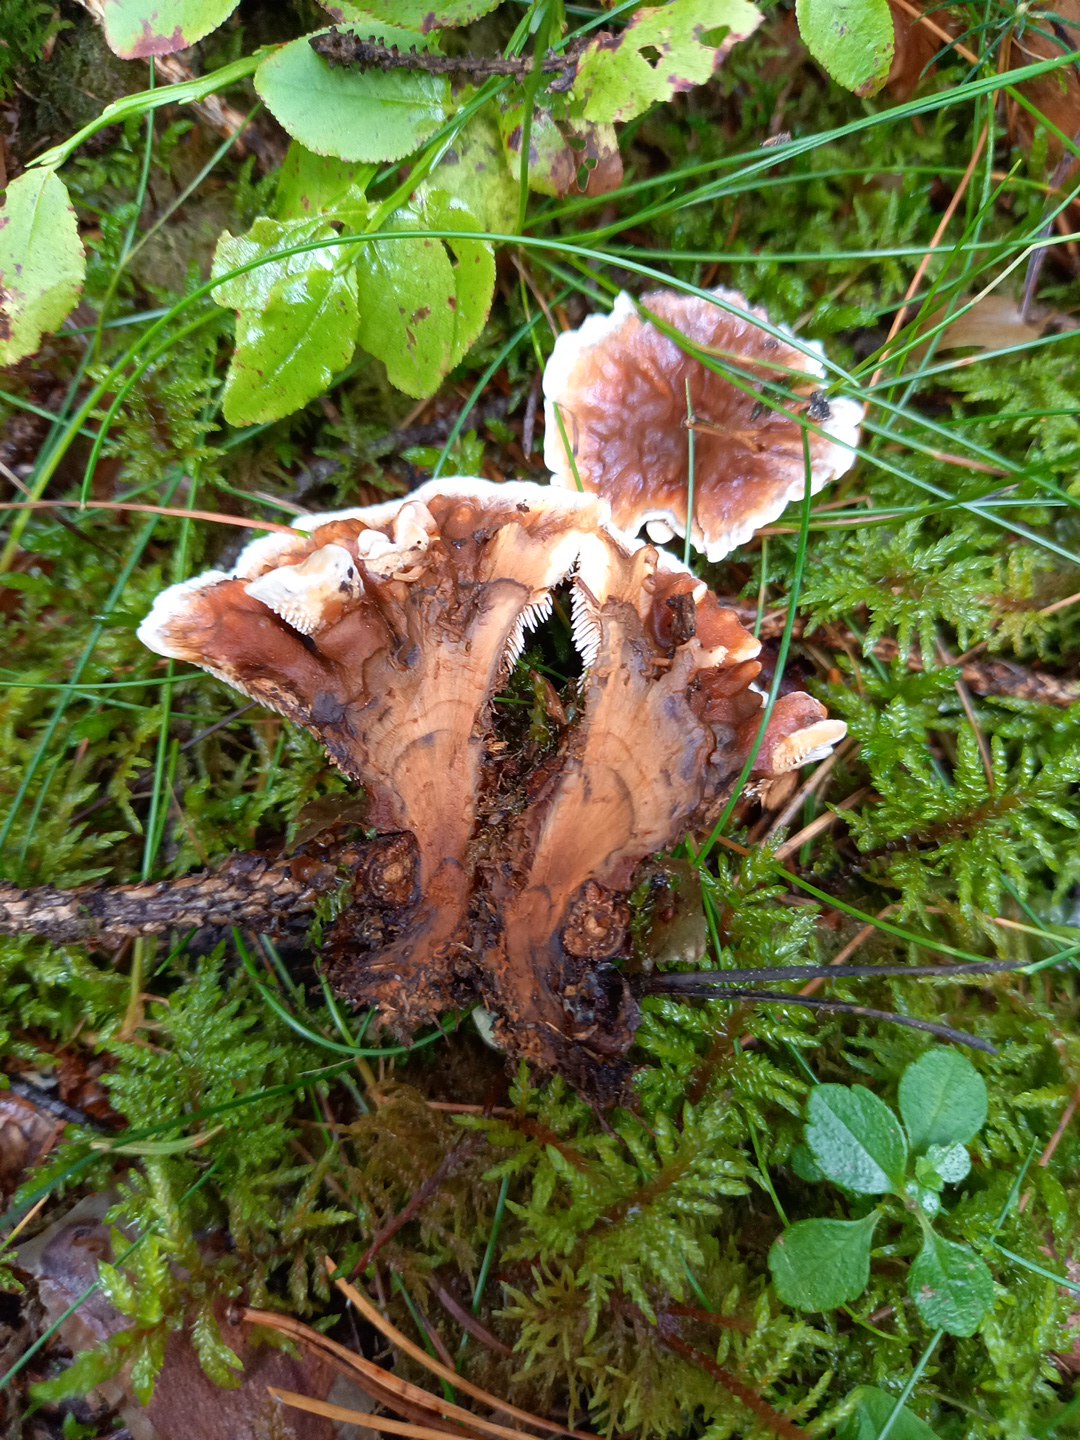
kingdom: Fungi
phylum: Basidiomycota
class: Agaricomycetes
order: Thelephorales
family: Bankeraceae
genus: Hydnellum
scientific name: Hydnellum aurantiacum
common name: orange korkpigsvamp
